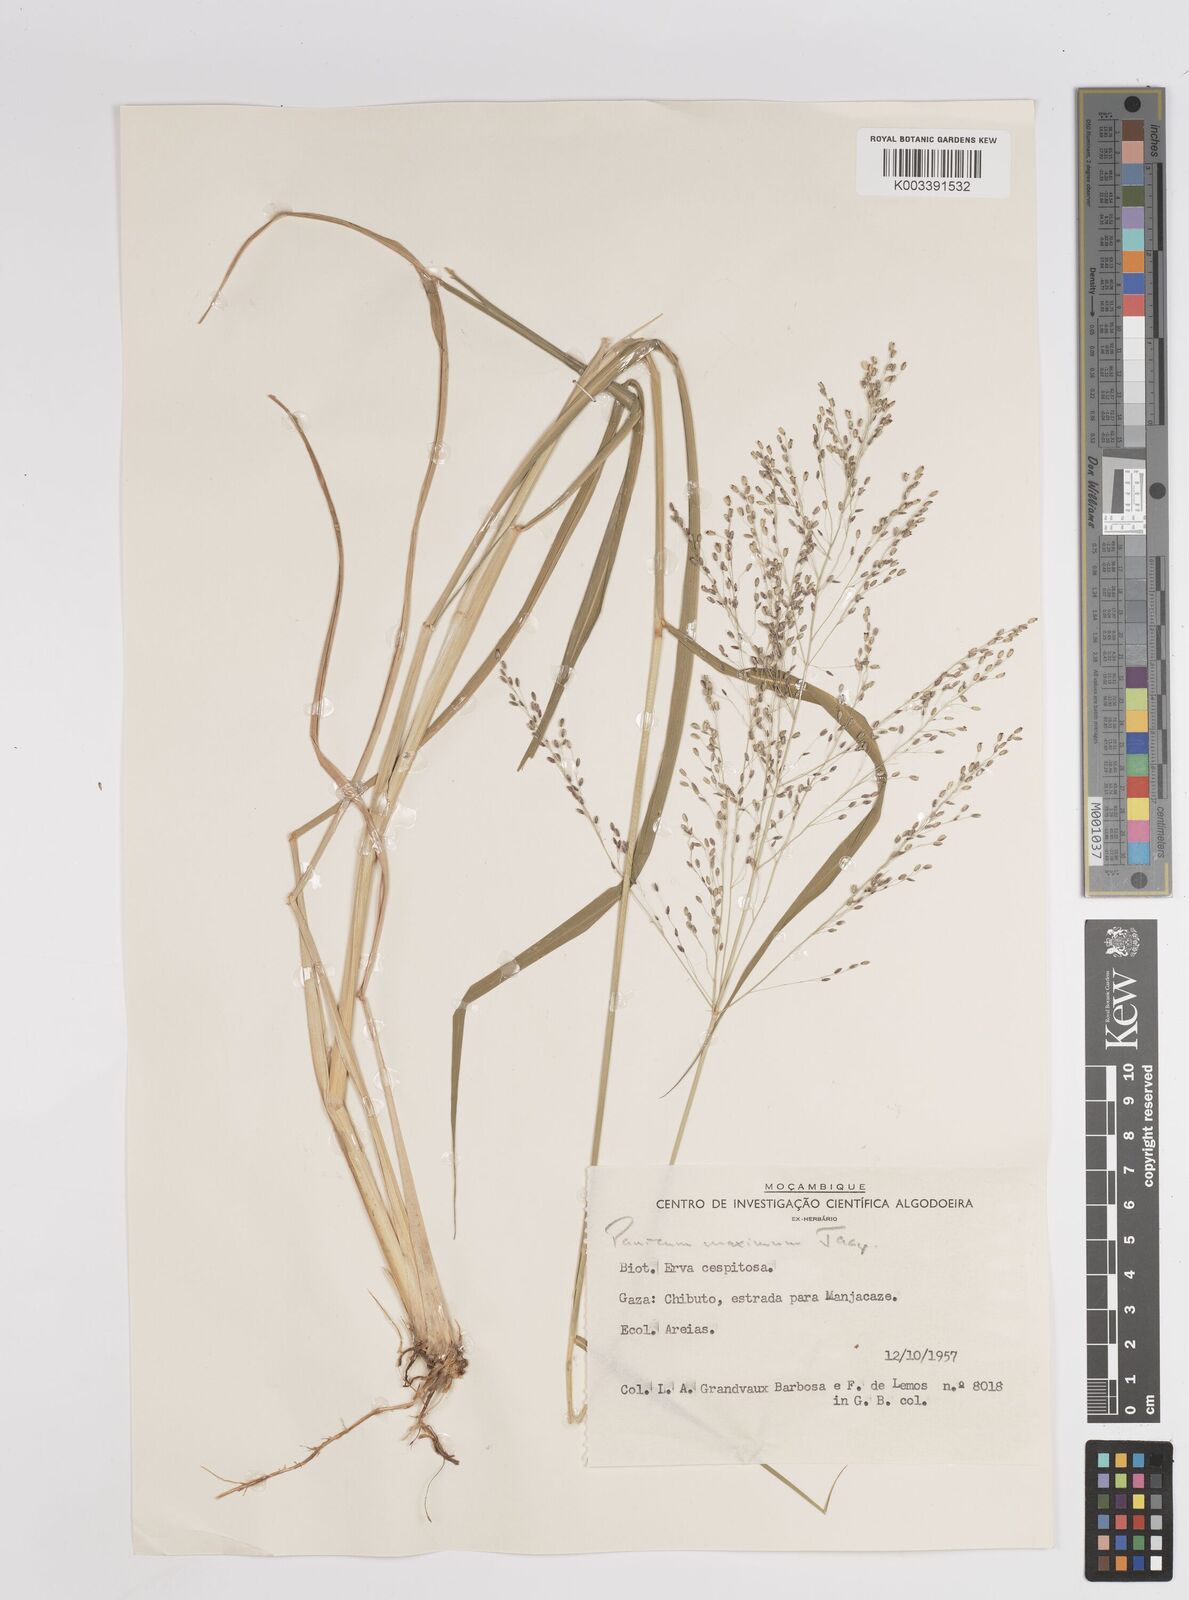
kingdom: Plantae
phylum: Tracheophyta
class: Liliopsida
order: Poales
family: Poaceae
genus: Megathyrsus
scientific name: Megathyrsus maximus
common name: Guineagrass
